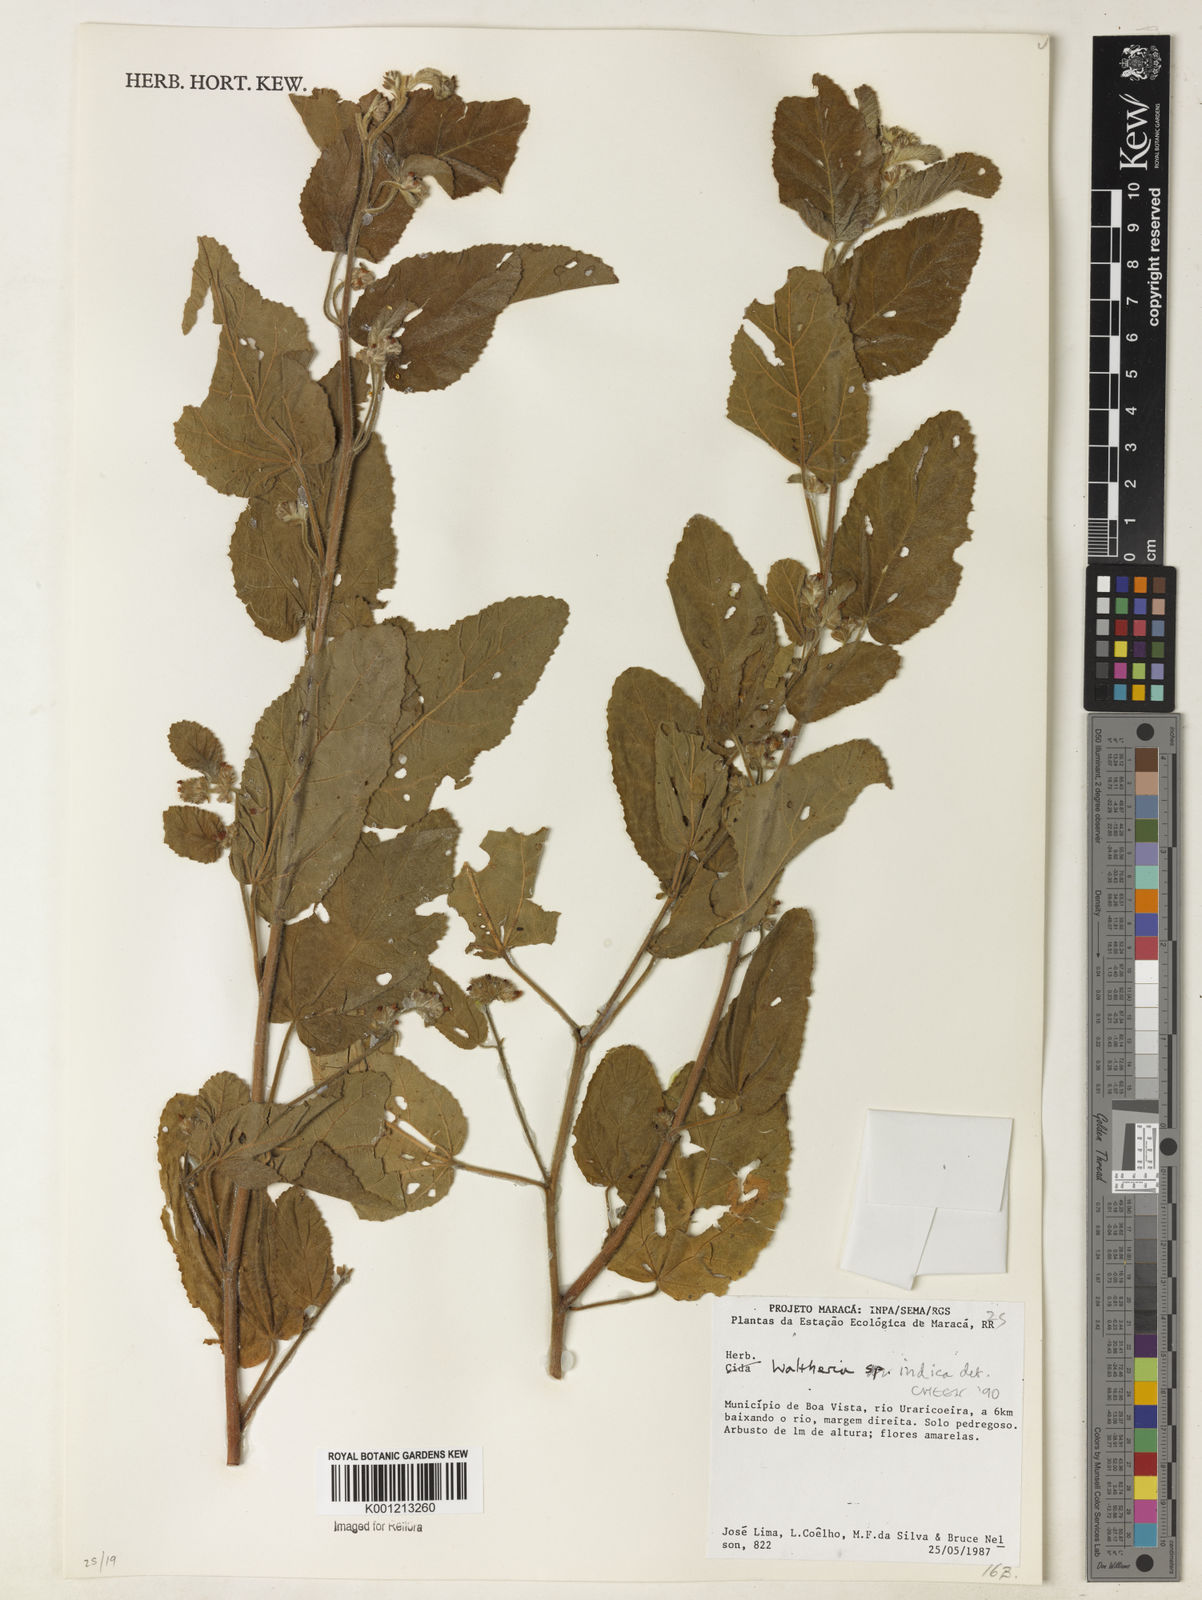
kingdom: Plantae
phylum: Tracheophyta
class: Magnoliopsida
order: Malvales
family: Malvaceae
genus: Waltheria
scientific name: Waltheria indica
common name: Leather-coat
